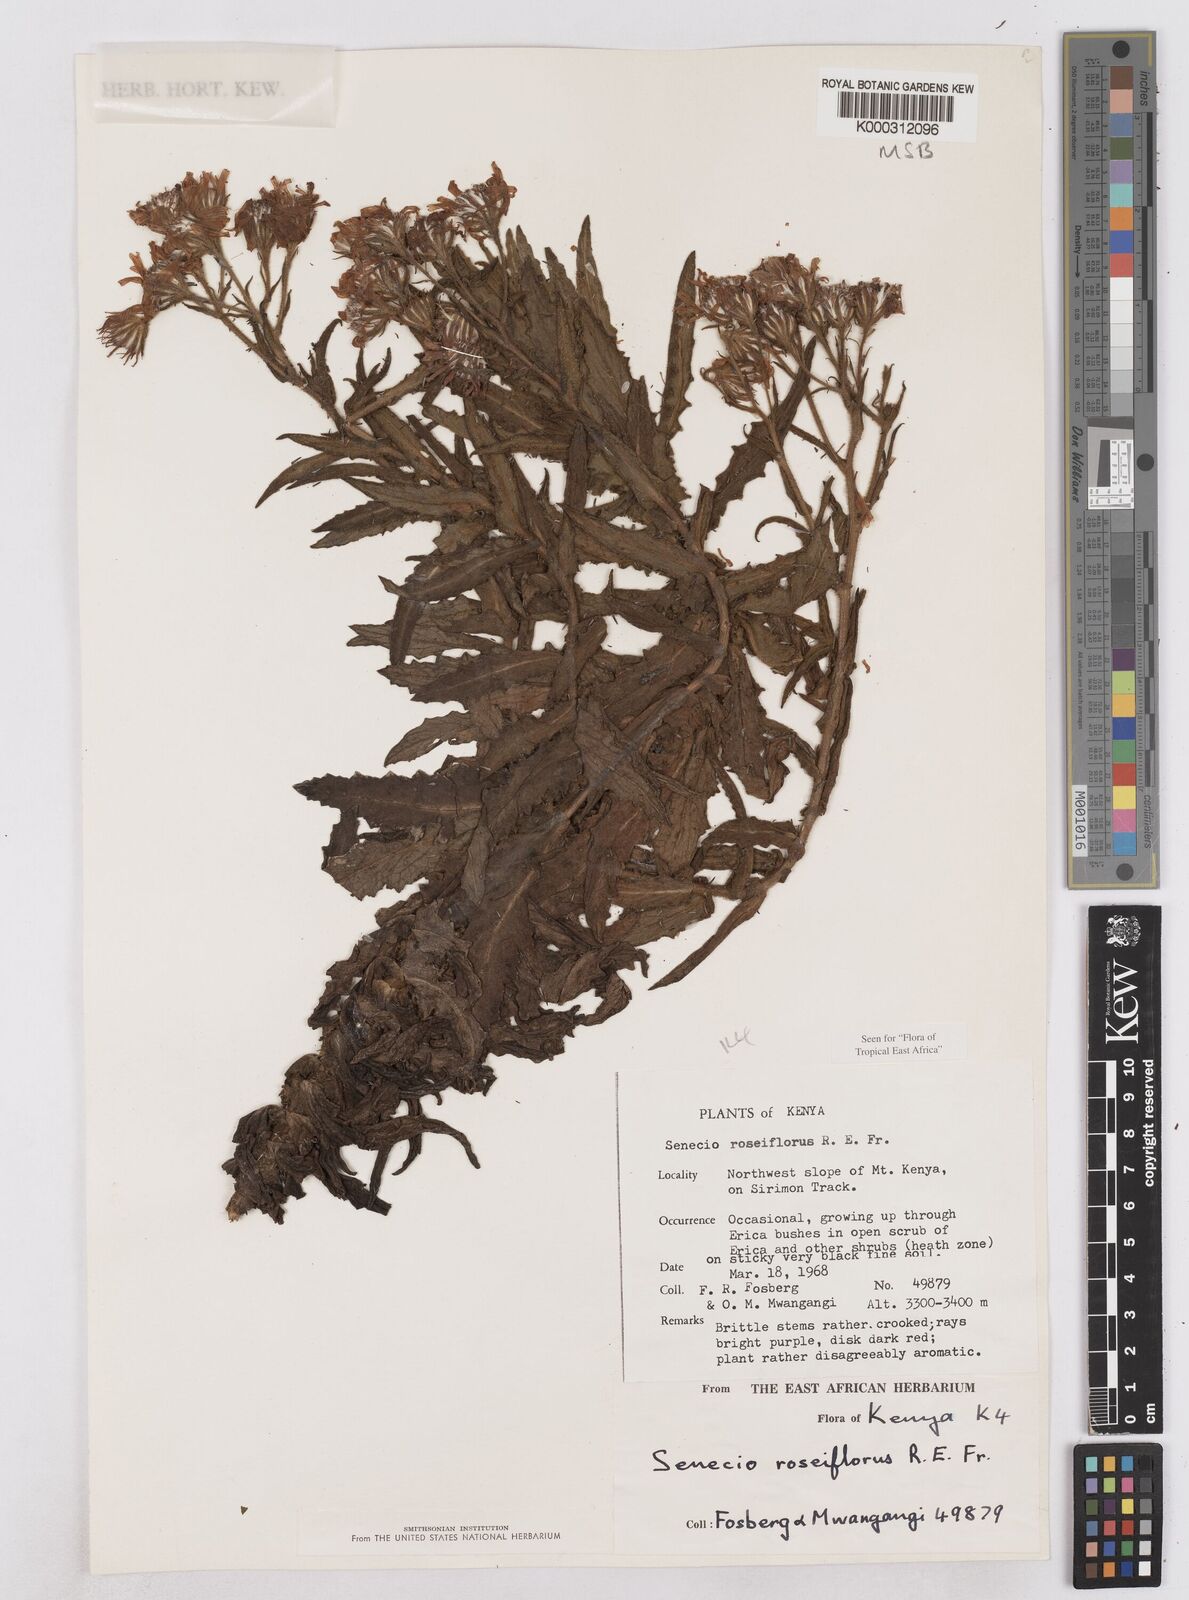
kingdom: Plantae
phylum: Tracheophyta
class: Magnoliopsida
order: Asterales
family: Asteraceae
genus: Senecio
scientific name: Senecio roseiflorus
